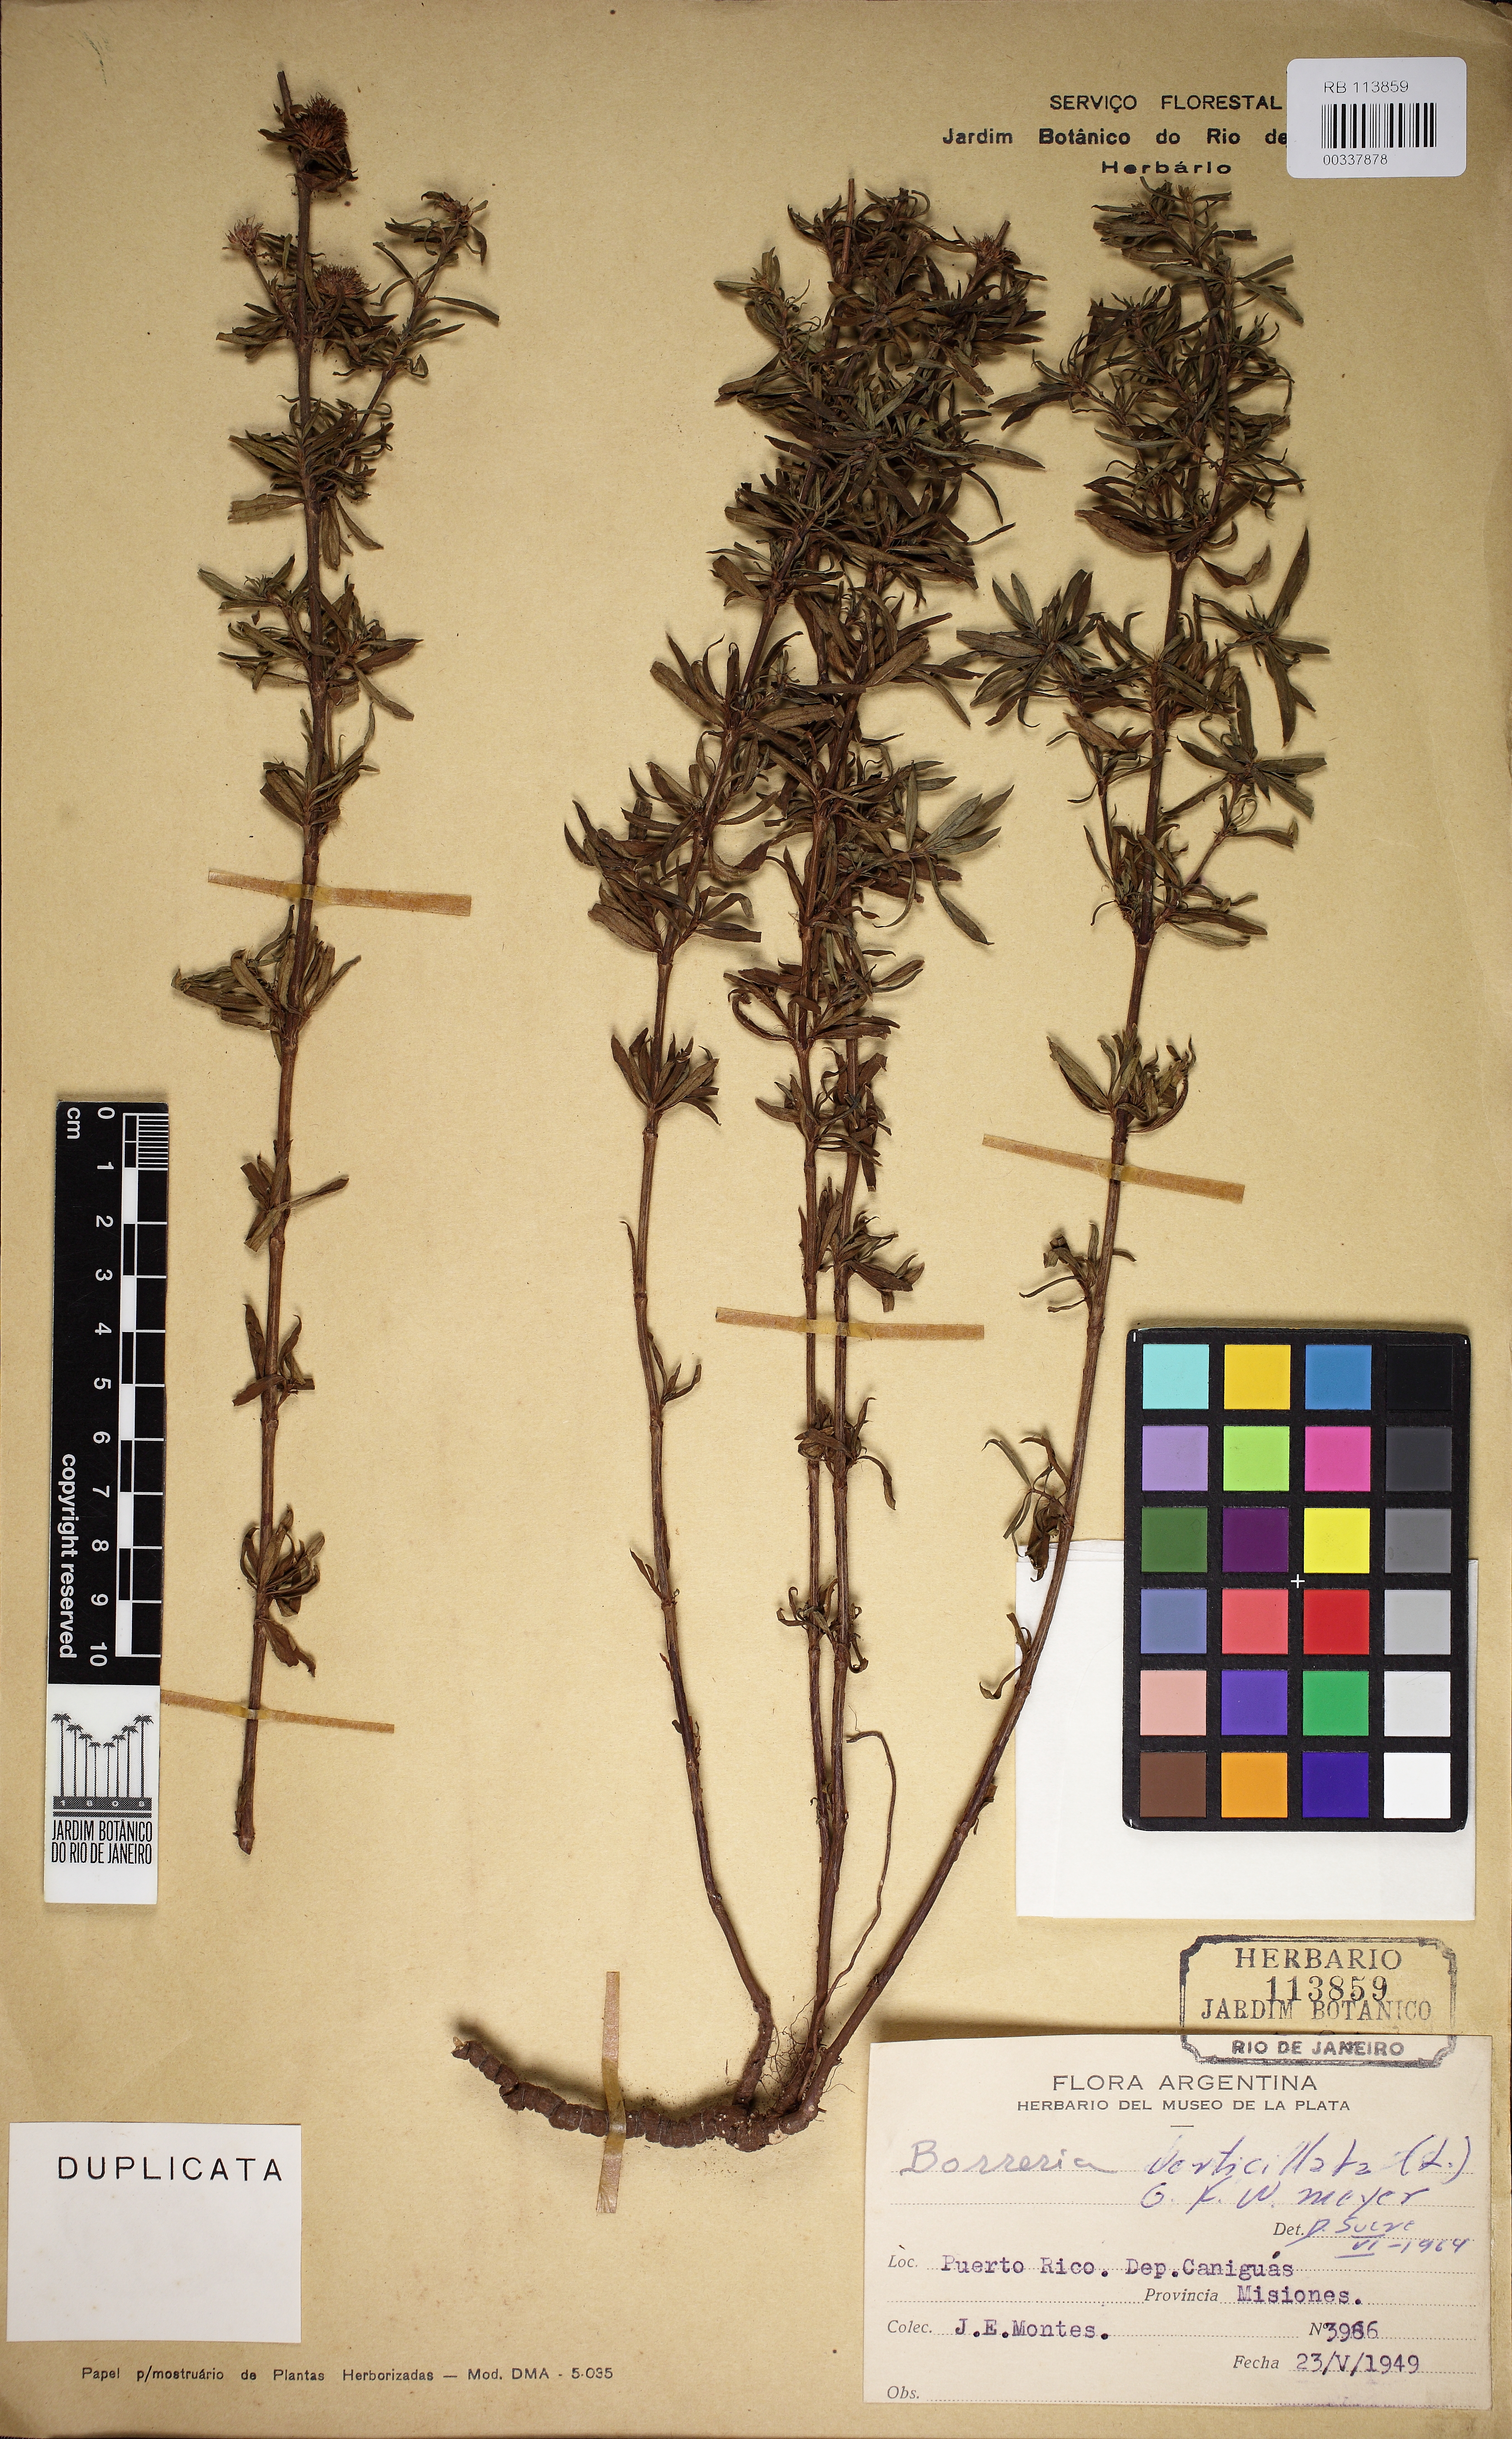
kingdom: Plantae
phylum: Tracheophyta
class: Magnoliopsida
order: Gentianales
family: Rubiaceae
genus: Spermacoce
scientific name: Spermacoce verticillata
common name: Shrubby false buttonweed
